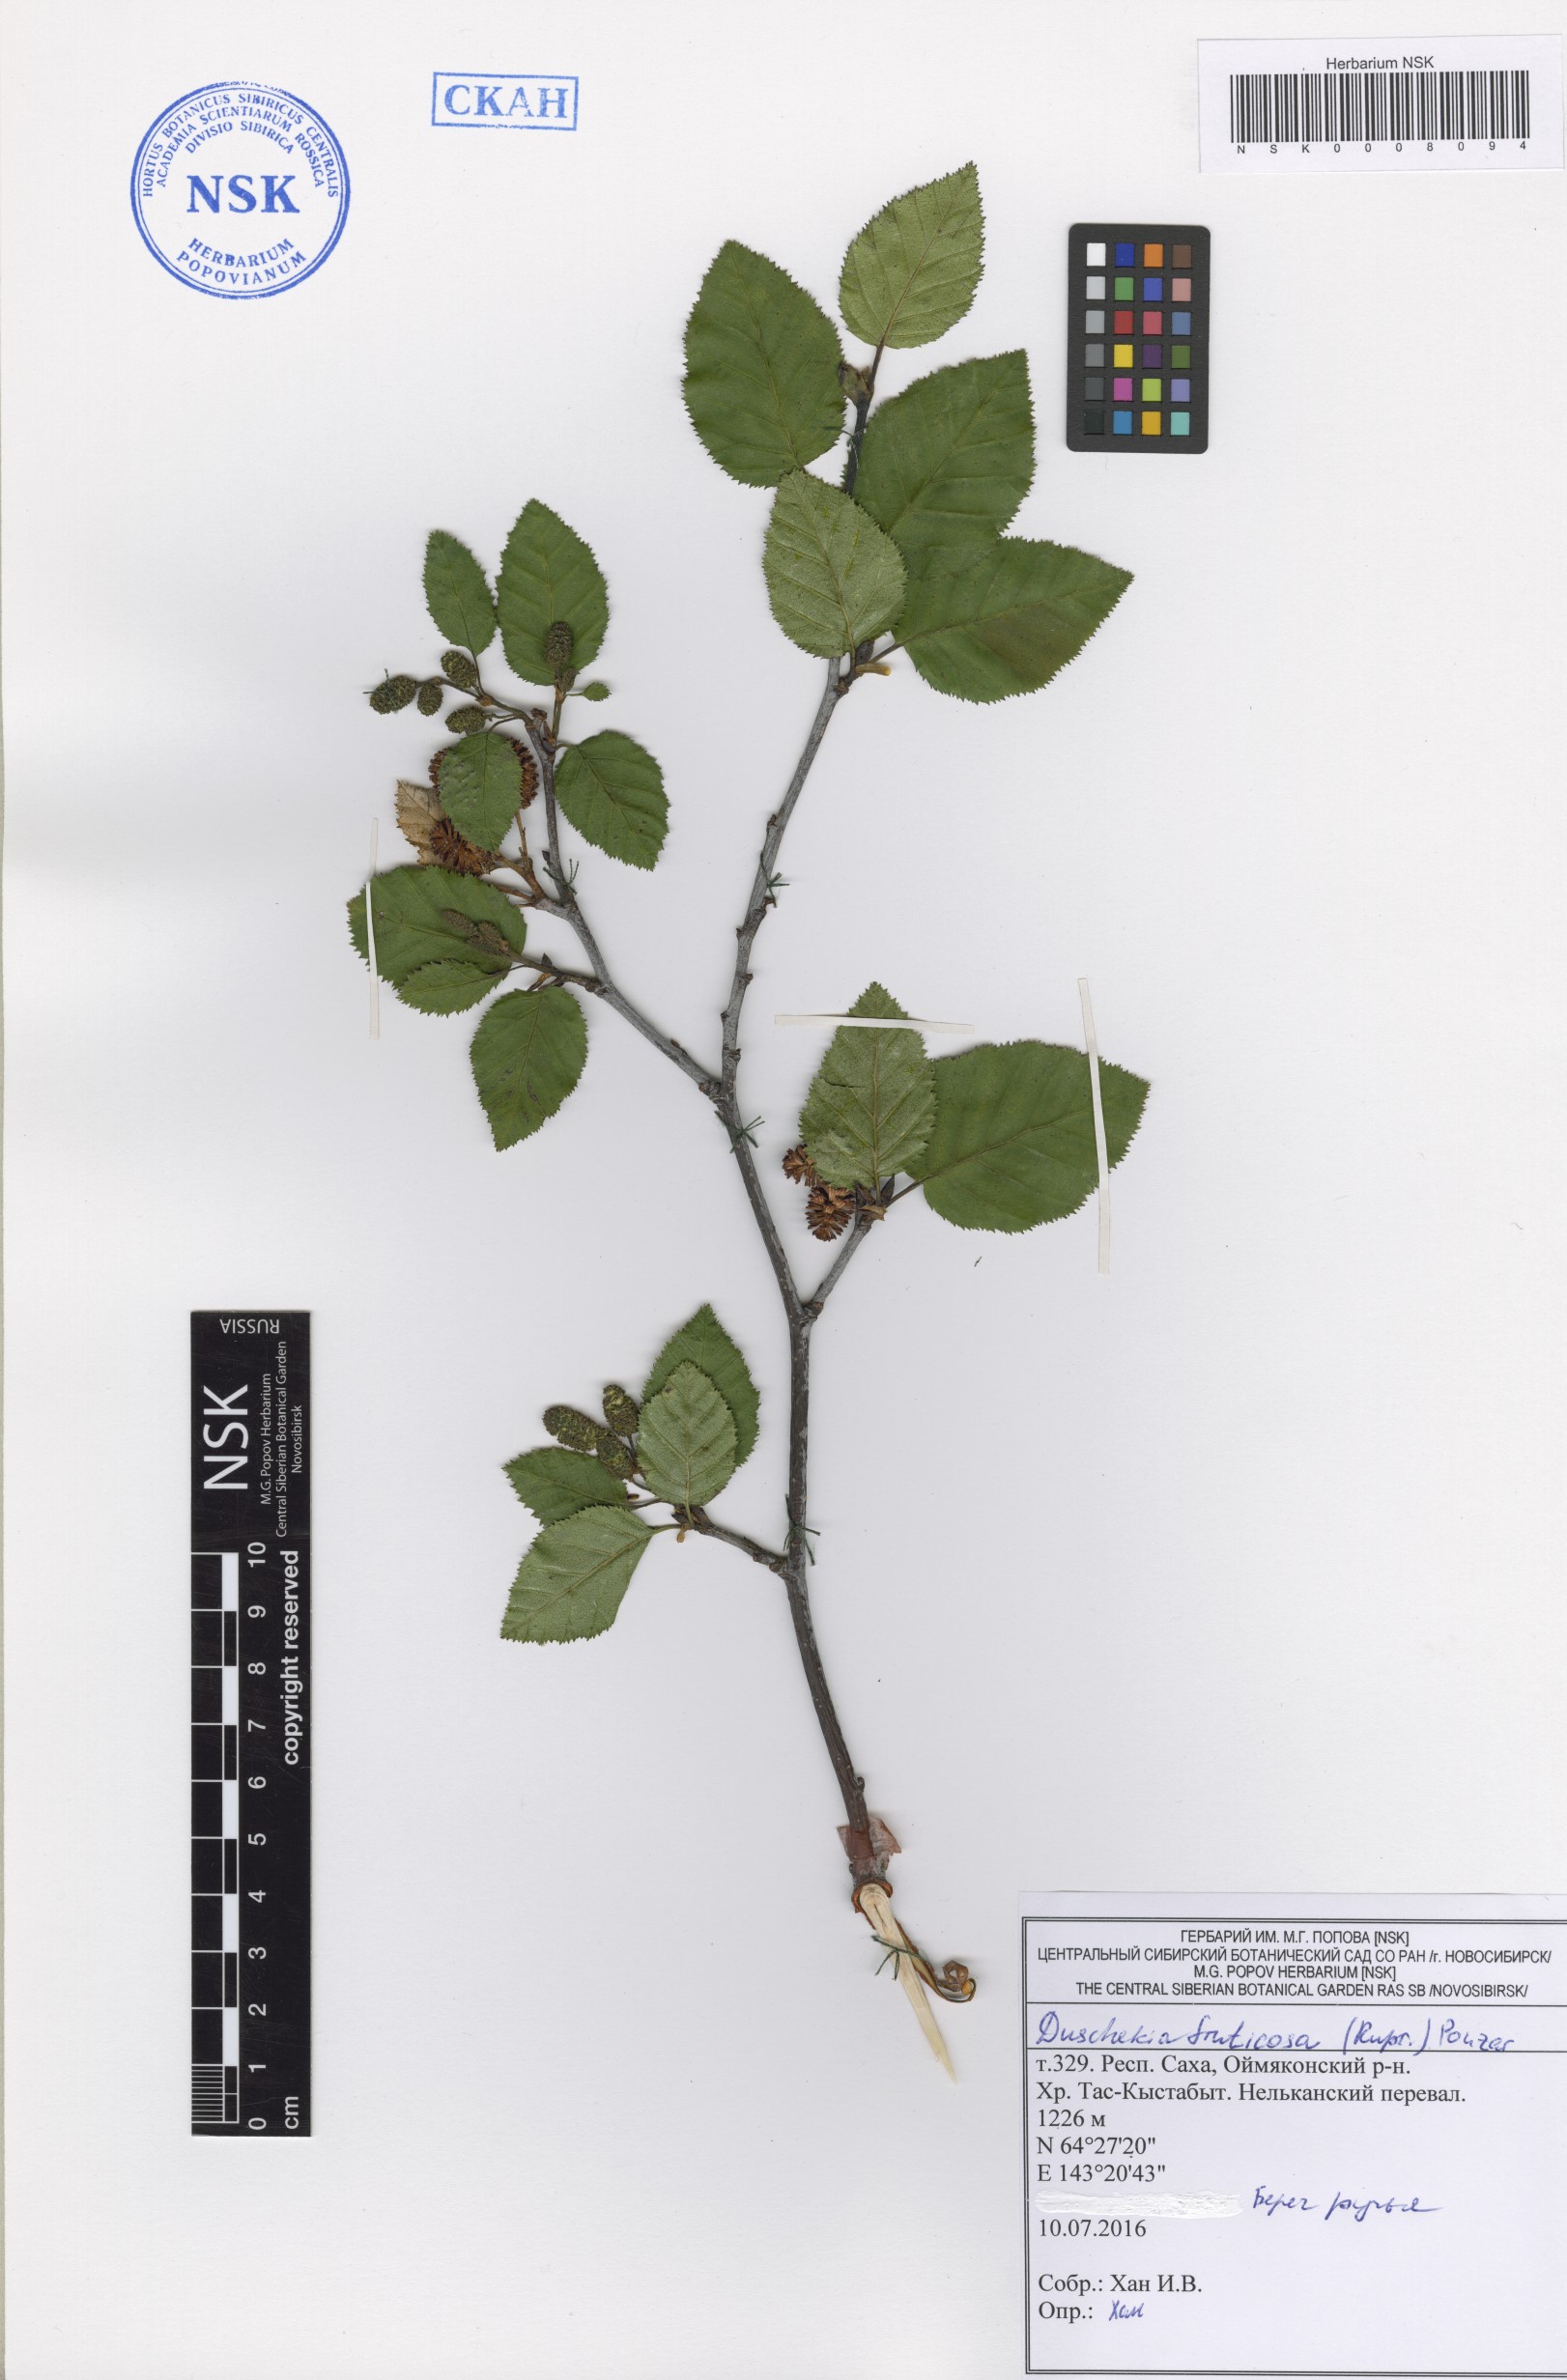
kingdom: Plantae
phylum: Tracheophyta
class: Magnoliopsida
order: Fagales
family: Betulaceae
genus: Alnus
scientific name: Alnus alnobetula
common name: Green alder
